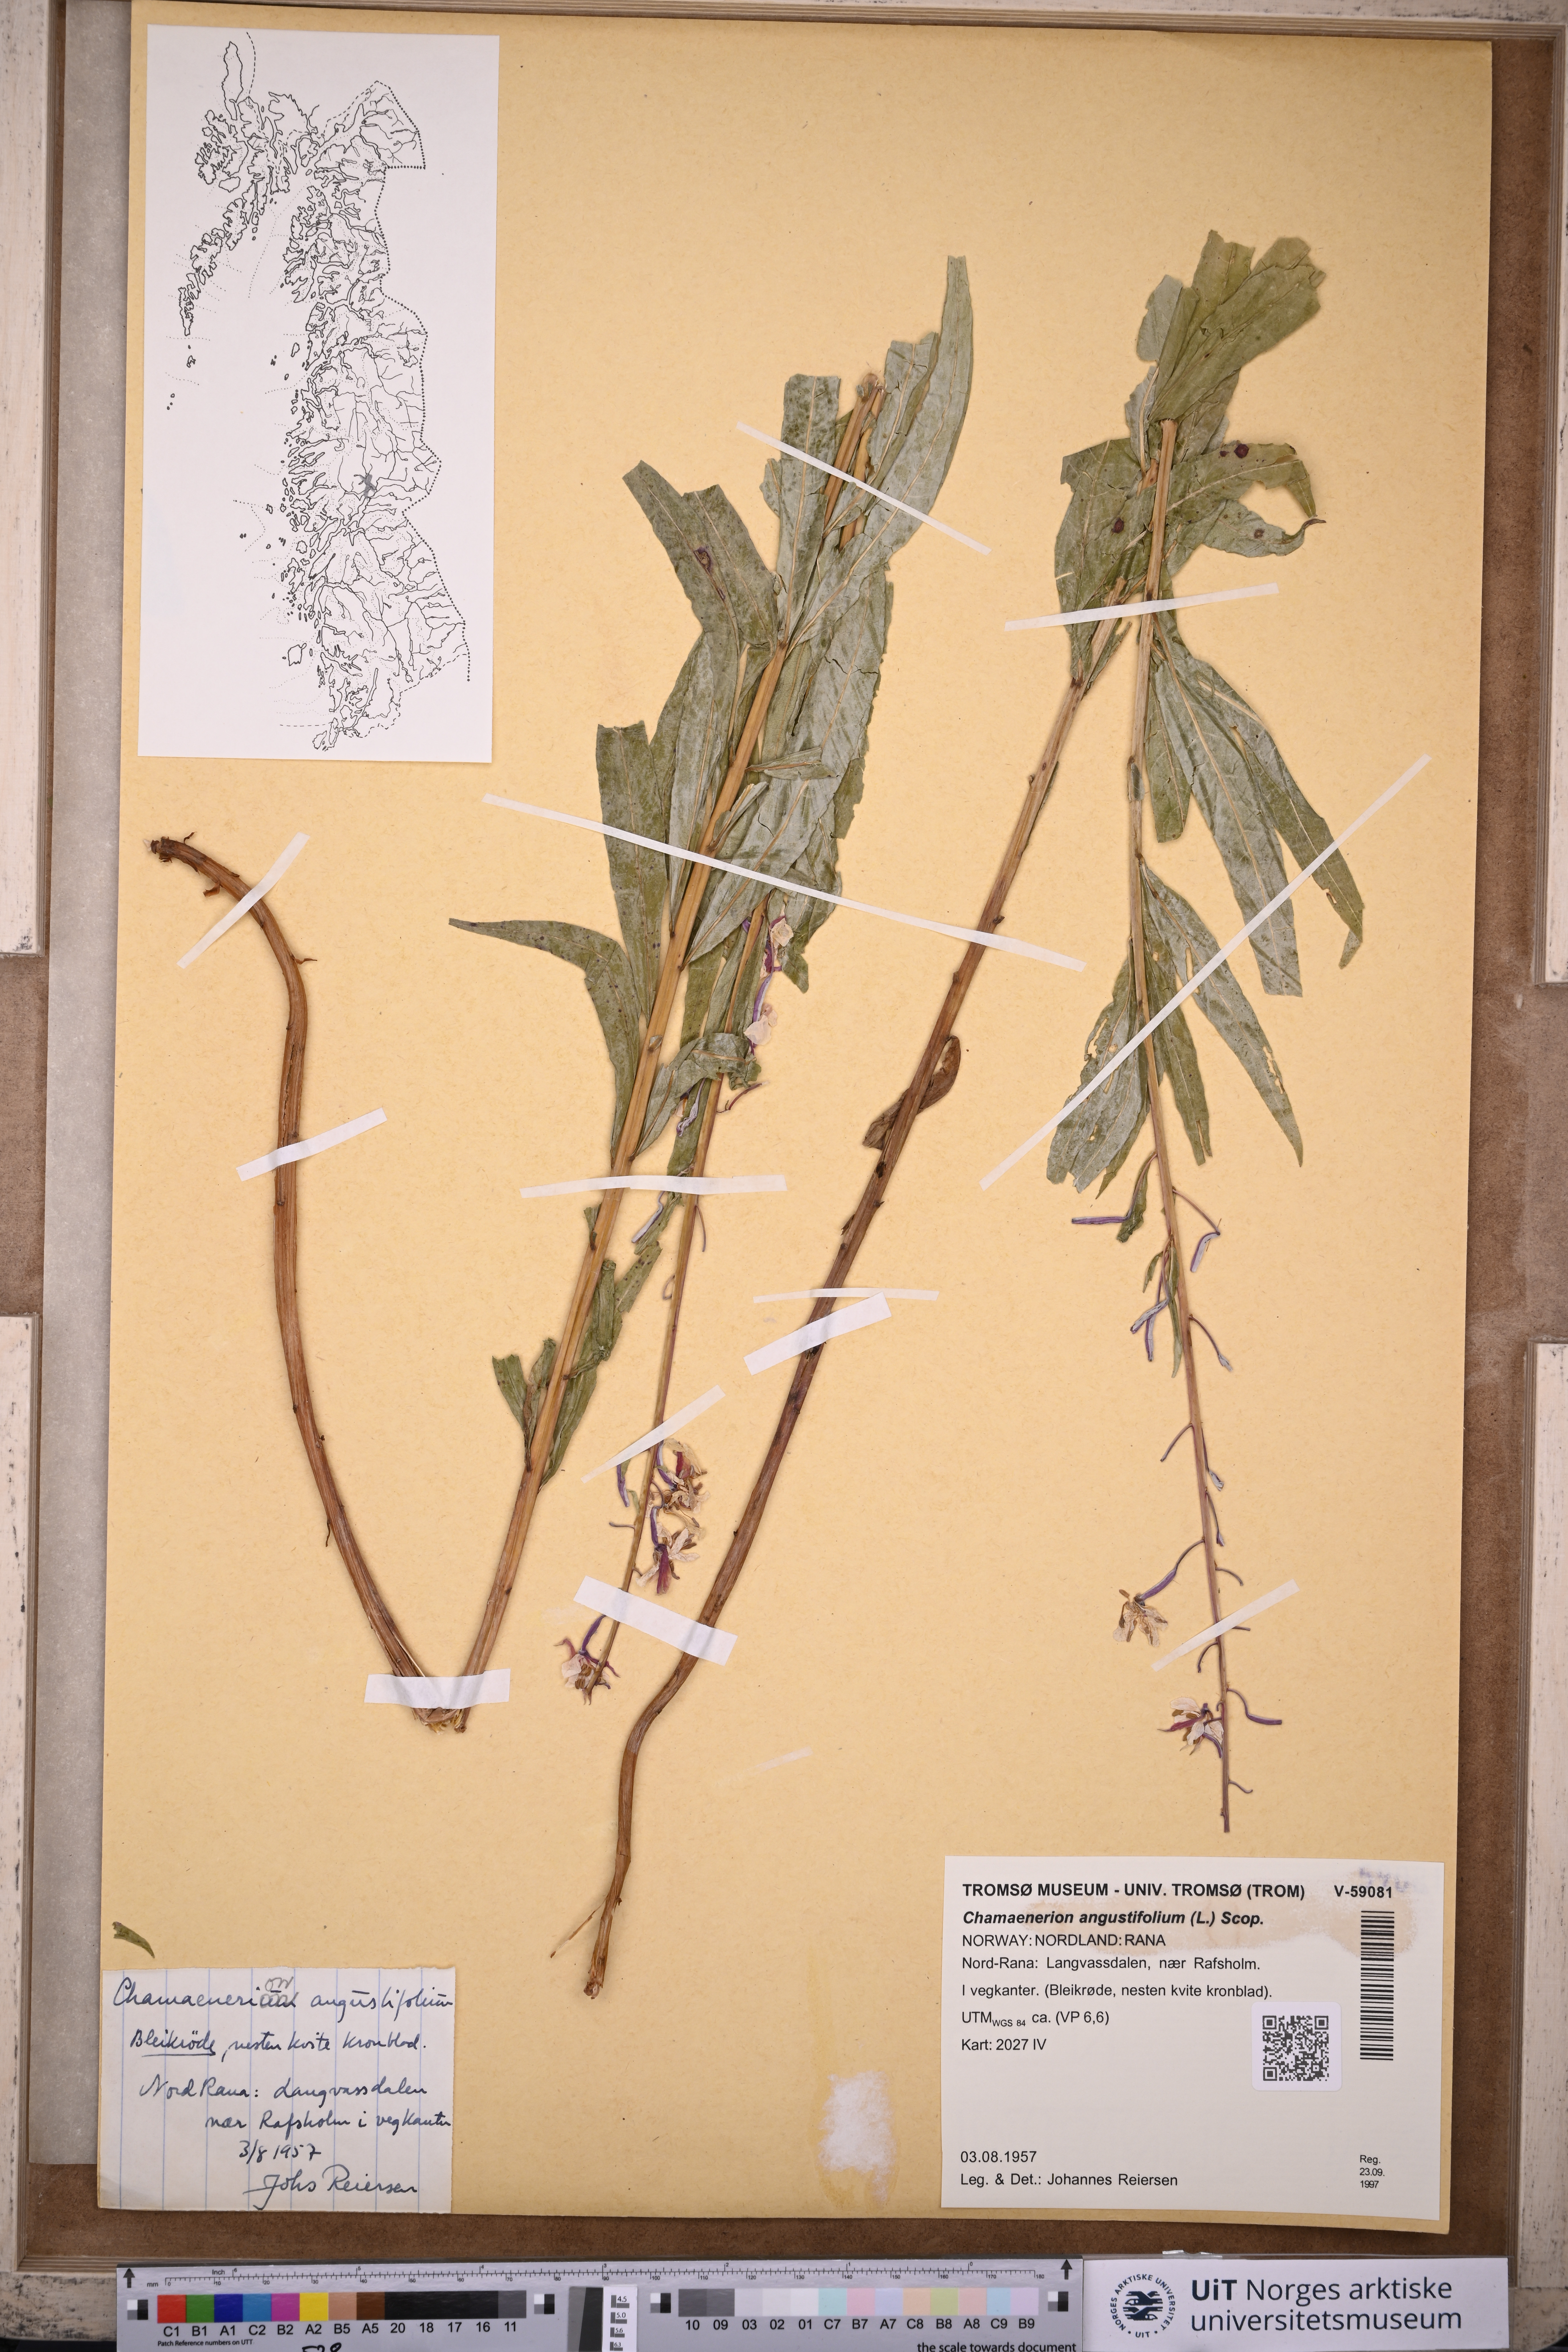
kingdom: Plantae
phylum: Tracheophyta
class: Magnoliopsida
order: Myrtales
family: Onagraceae
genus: Chamaenerion
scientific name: Chamaenerion angustifolium
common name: Fireweed
